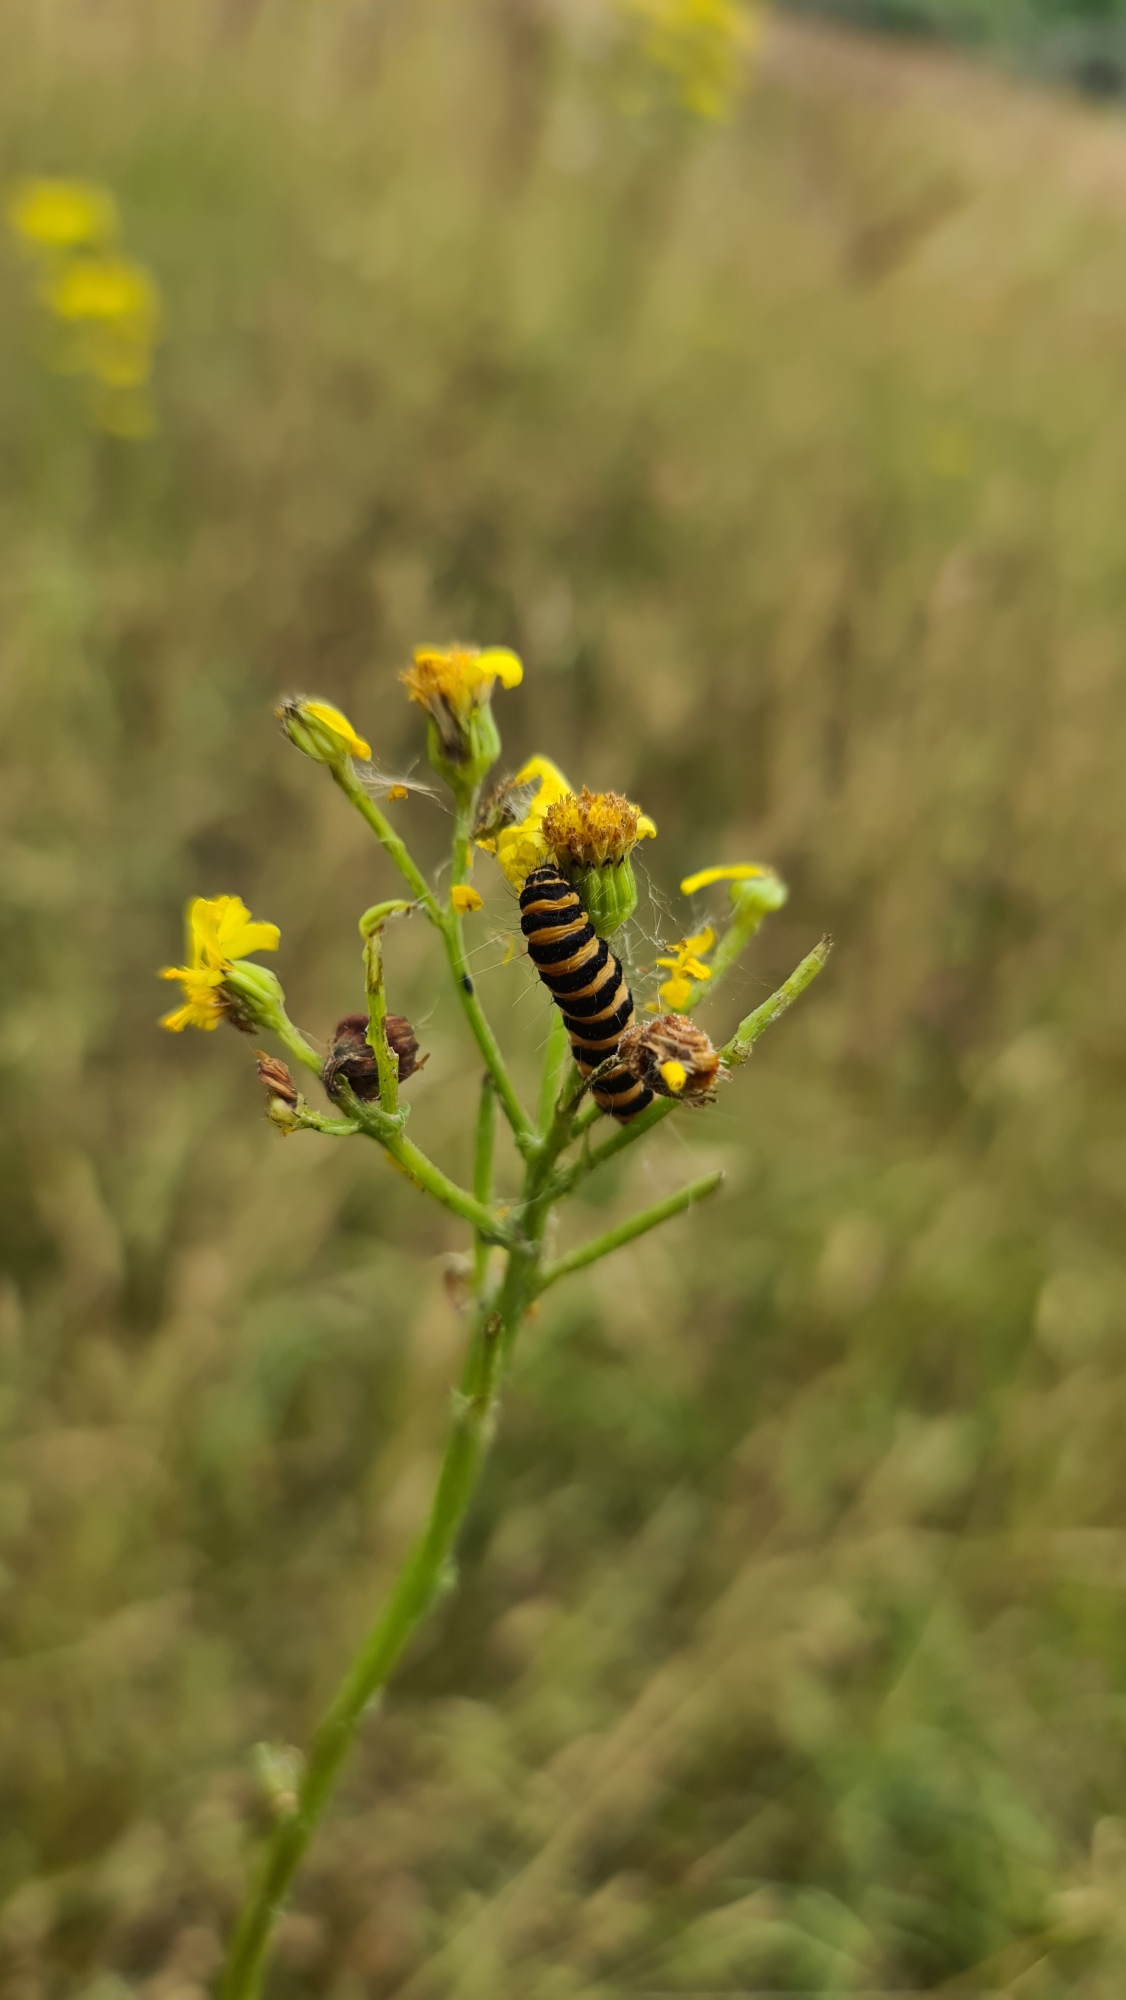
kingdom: Animalia
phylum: Arthropoda
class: Insecta
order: Lepidoptera
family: Erebidae
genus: Tyria
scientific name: Tyria jacobaeae
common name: Blodplet
